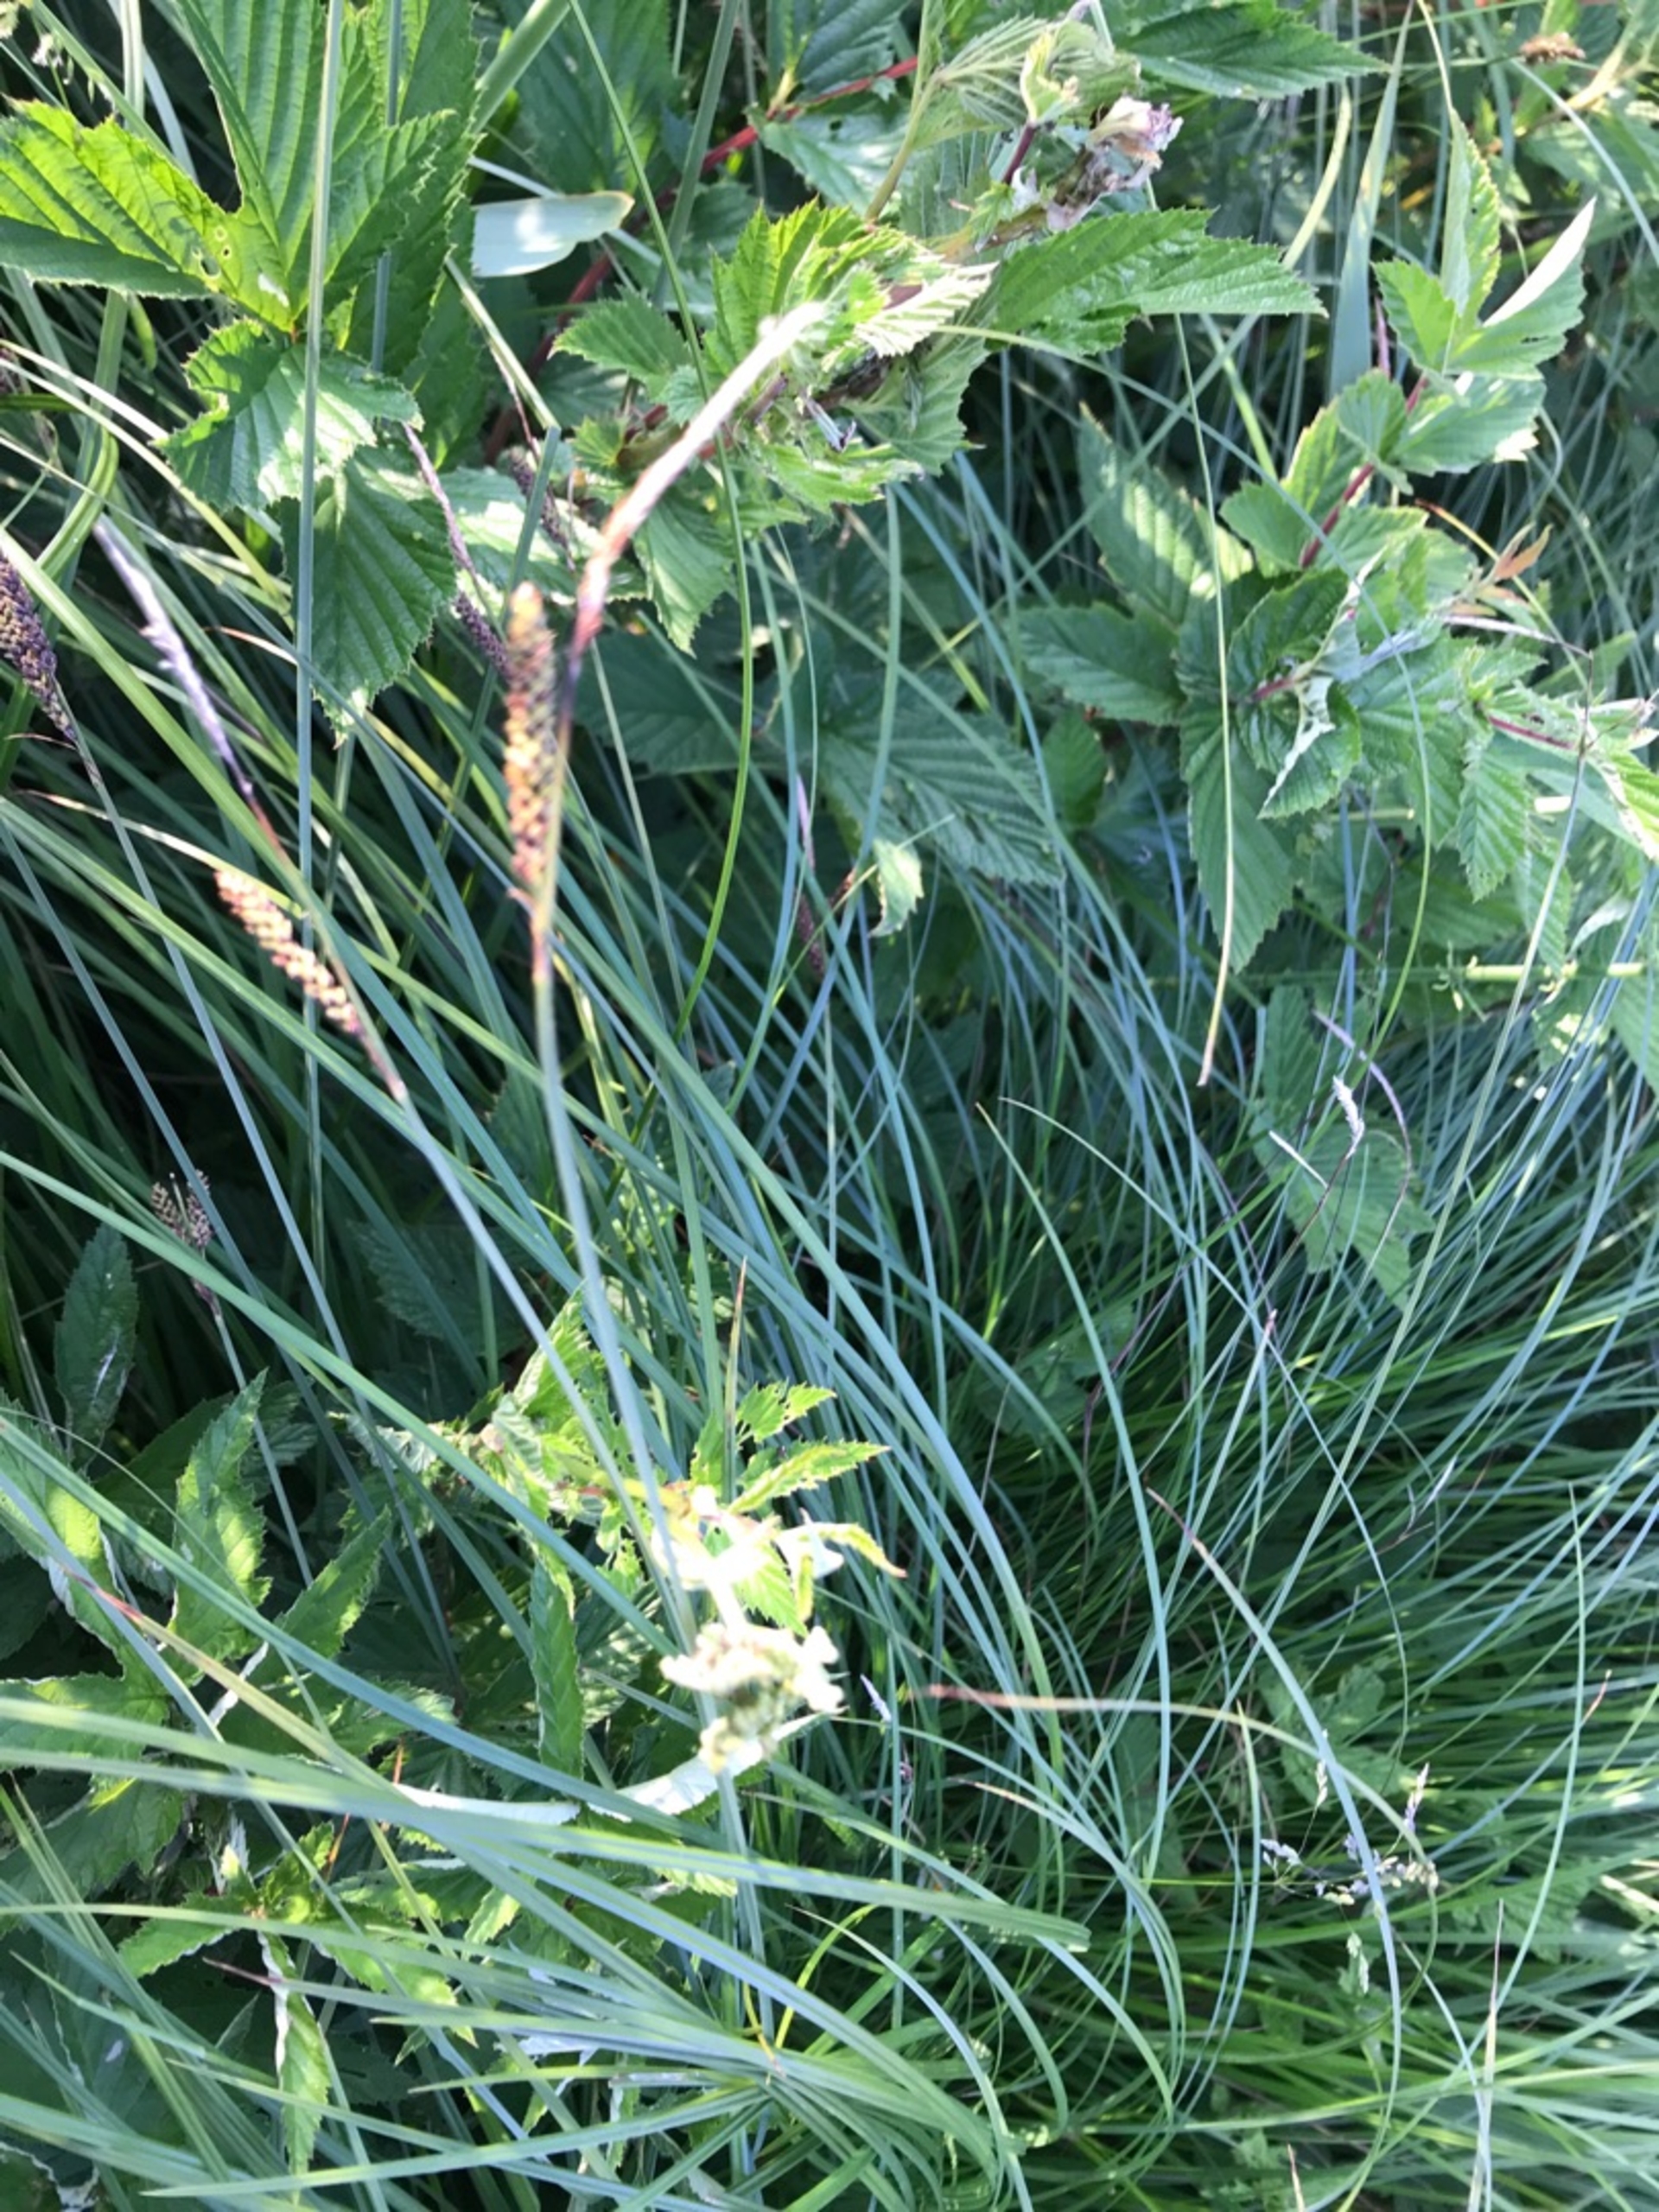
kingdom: Plantae
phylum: Tracheophyta
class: Liliopsida
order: Poales
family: Cyperaceae
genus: Carex
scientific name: Carex cespitosa
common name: Tue-star
